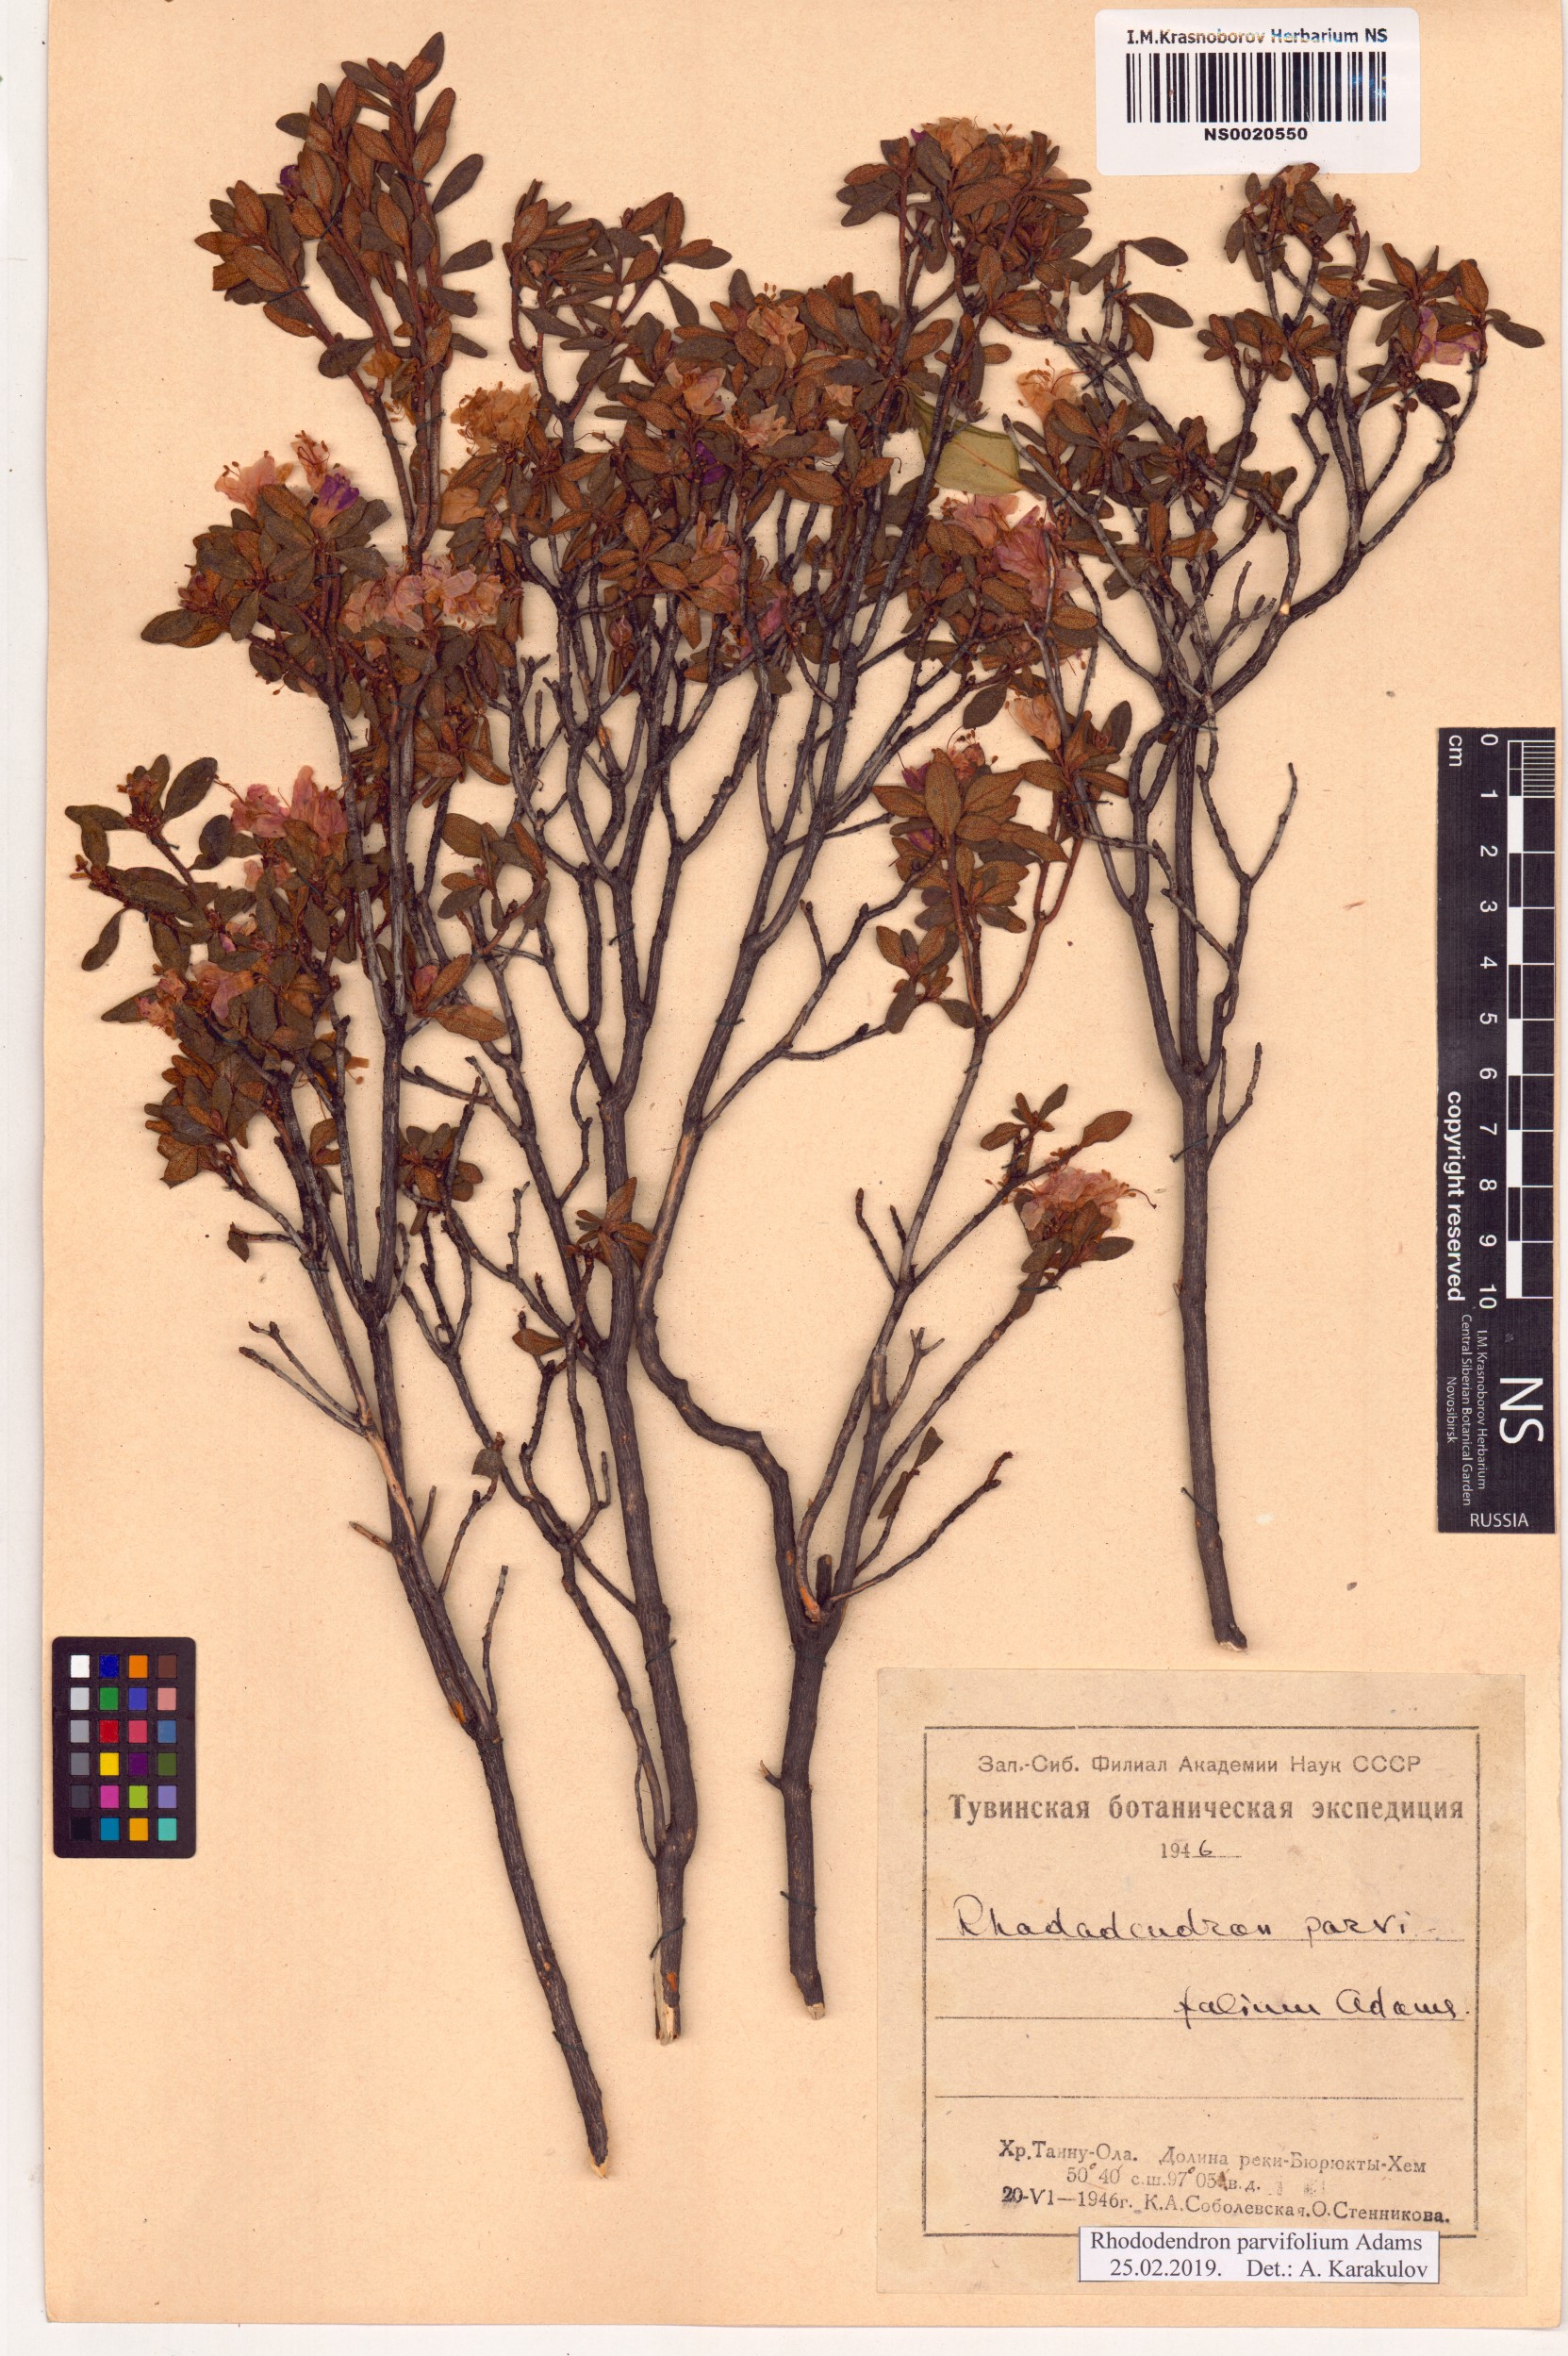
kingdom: Plantae
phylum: Tracheophyta
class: Magnoliopsida
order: Ericales
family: Ericaceae
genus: Rhododendron
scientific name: Rhododendron parvifolium
